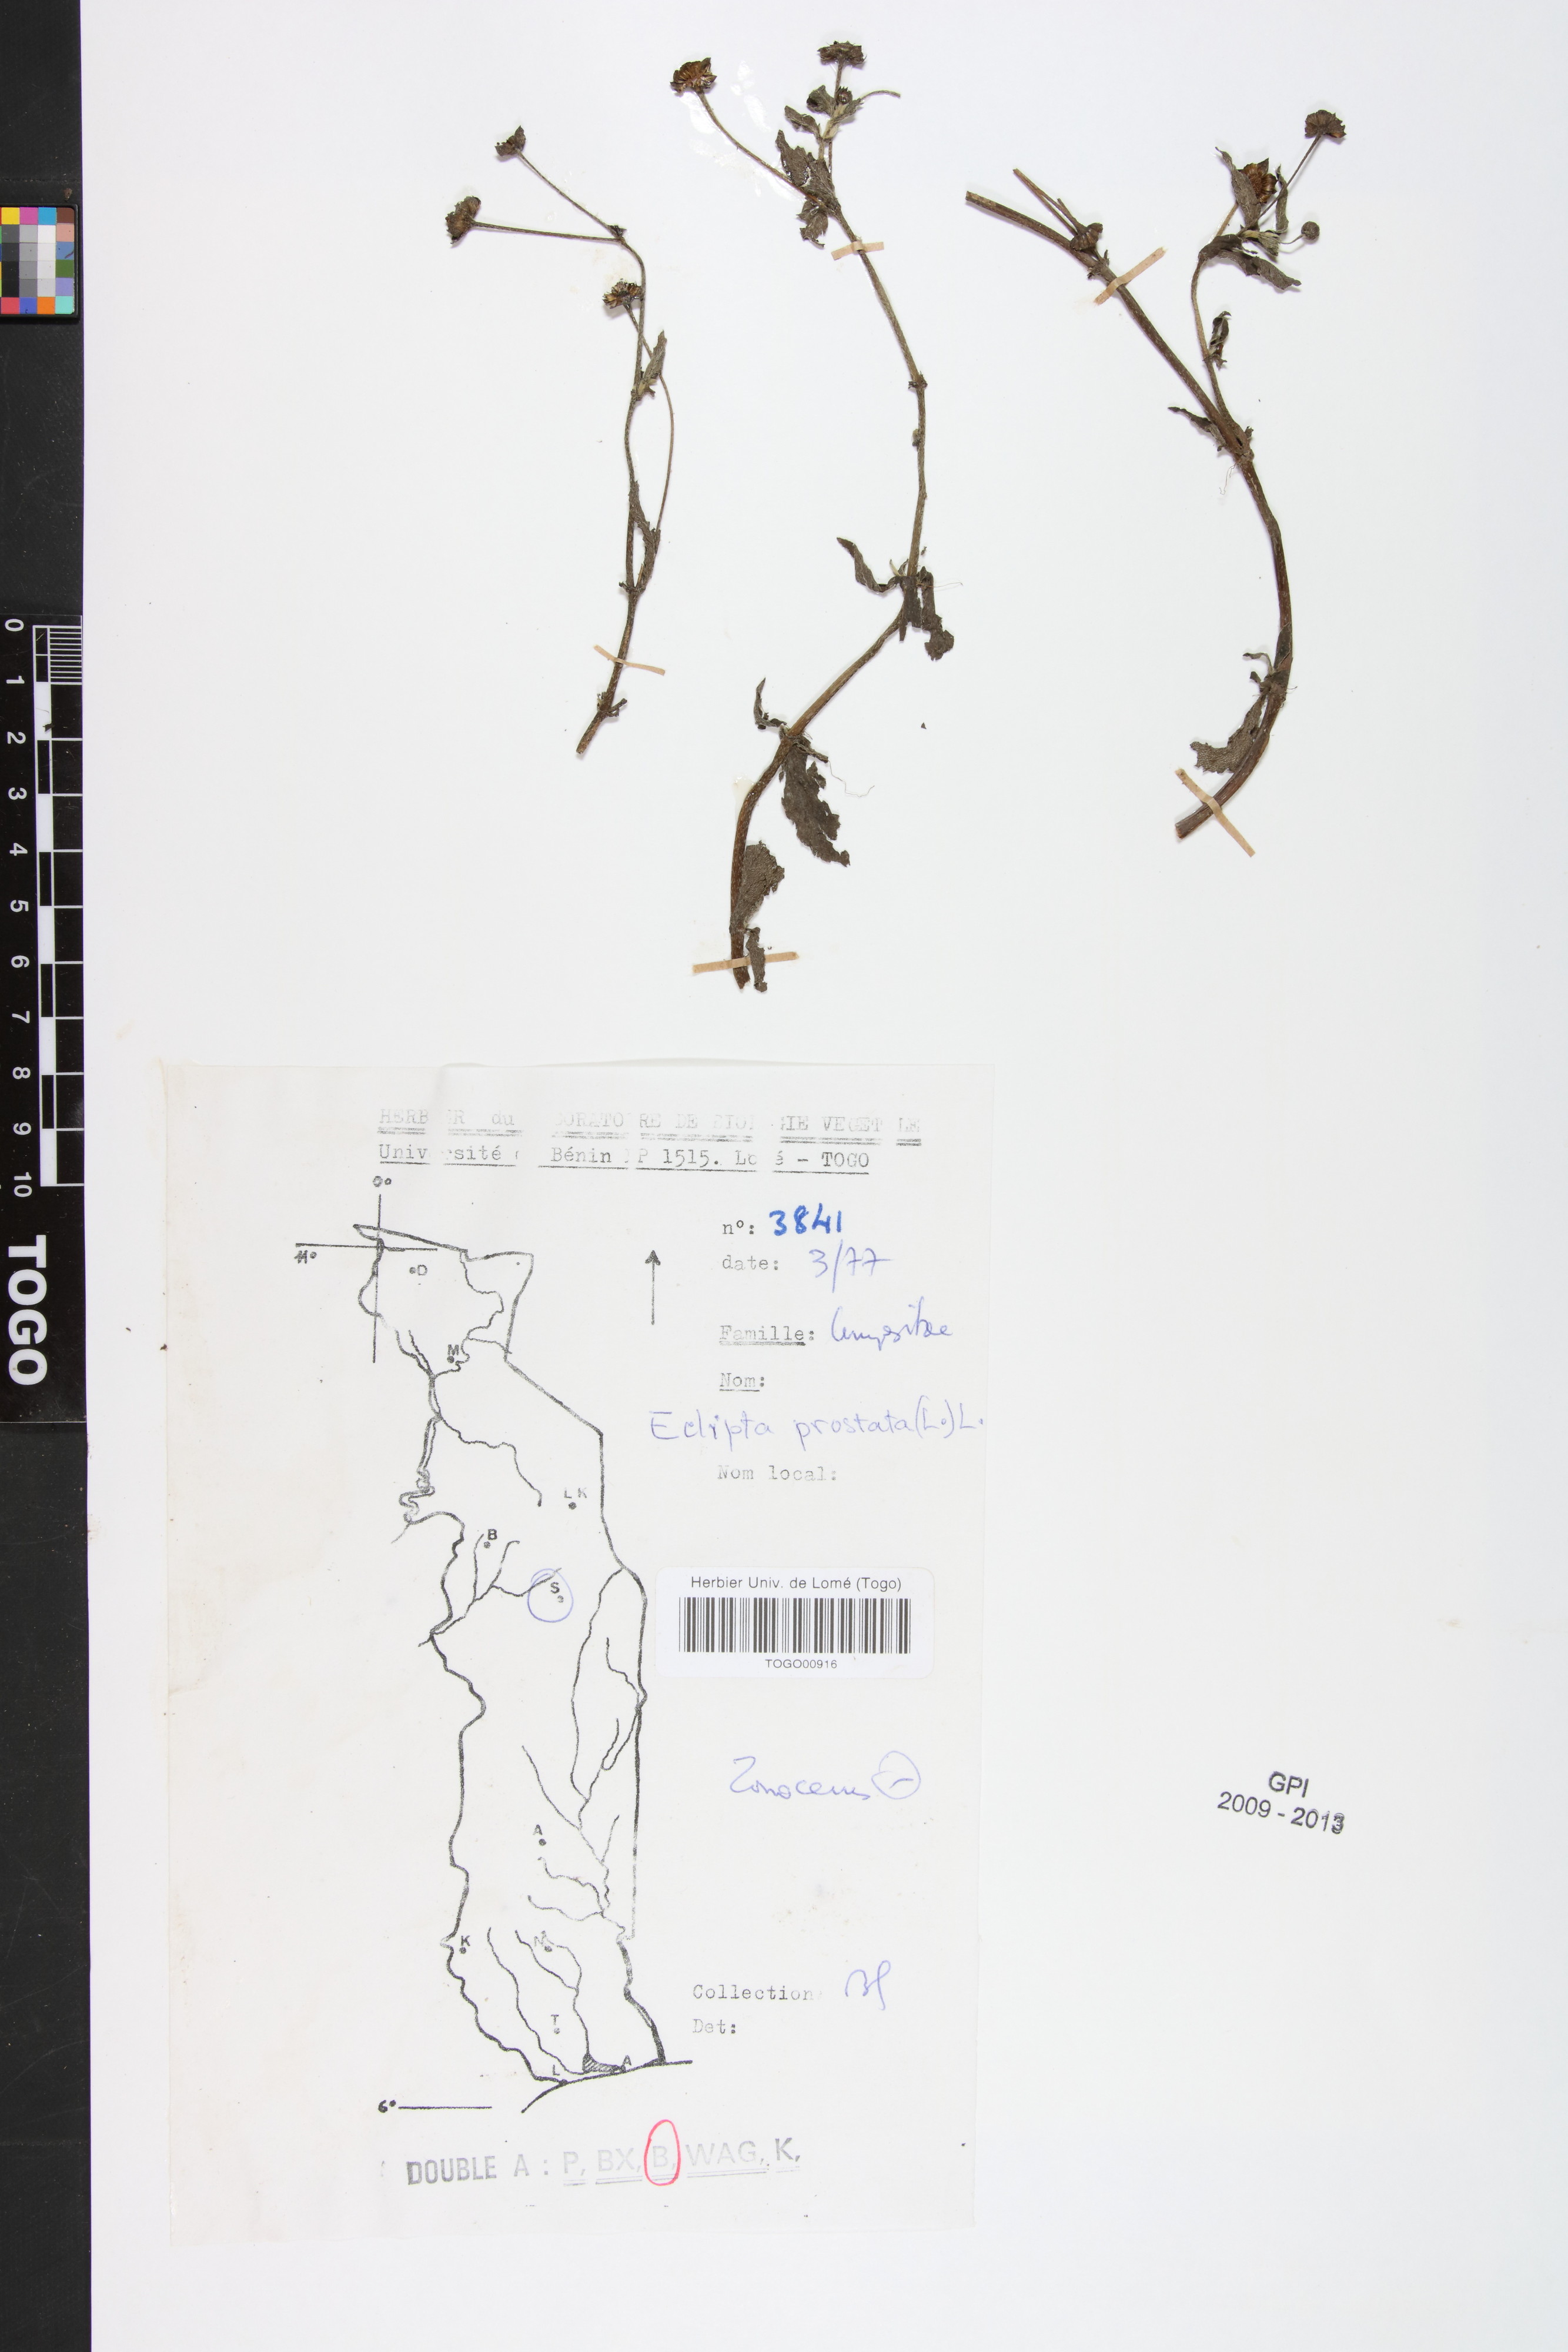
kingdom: Plantae
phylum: Tracheophyta
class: Magnoliopsida
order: Asterales
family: Asteraceae
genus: Eclipta
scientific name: Eclipta prostrata
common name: False daisy
